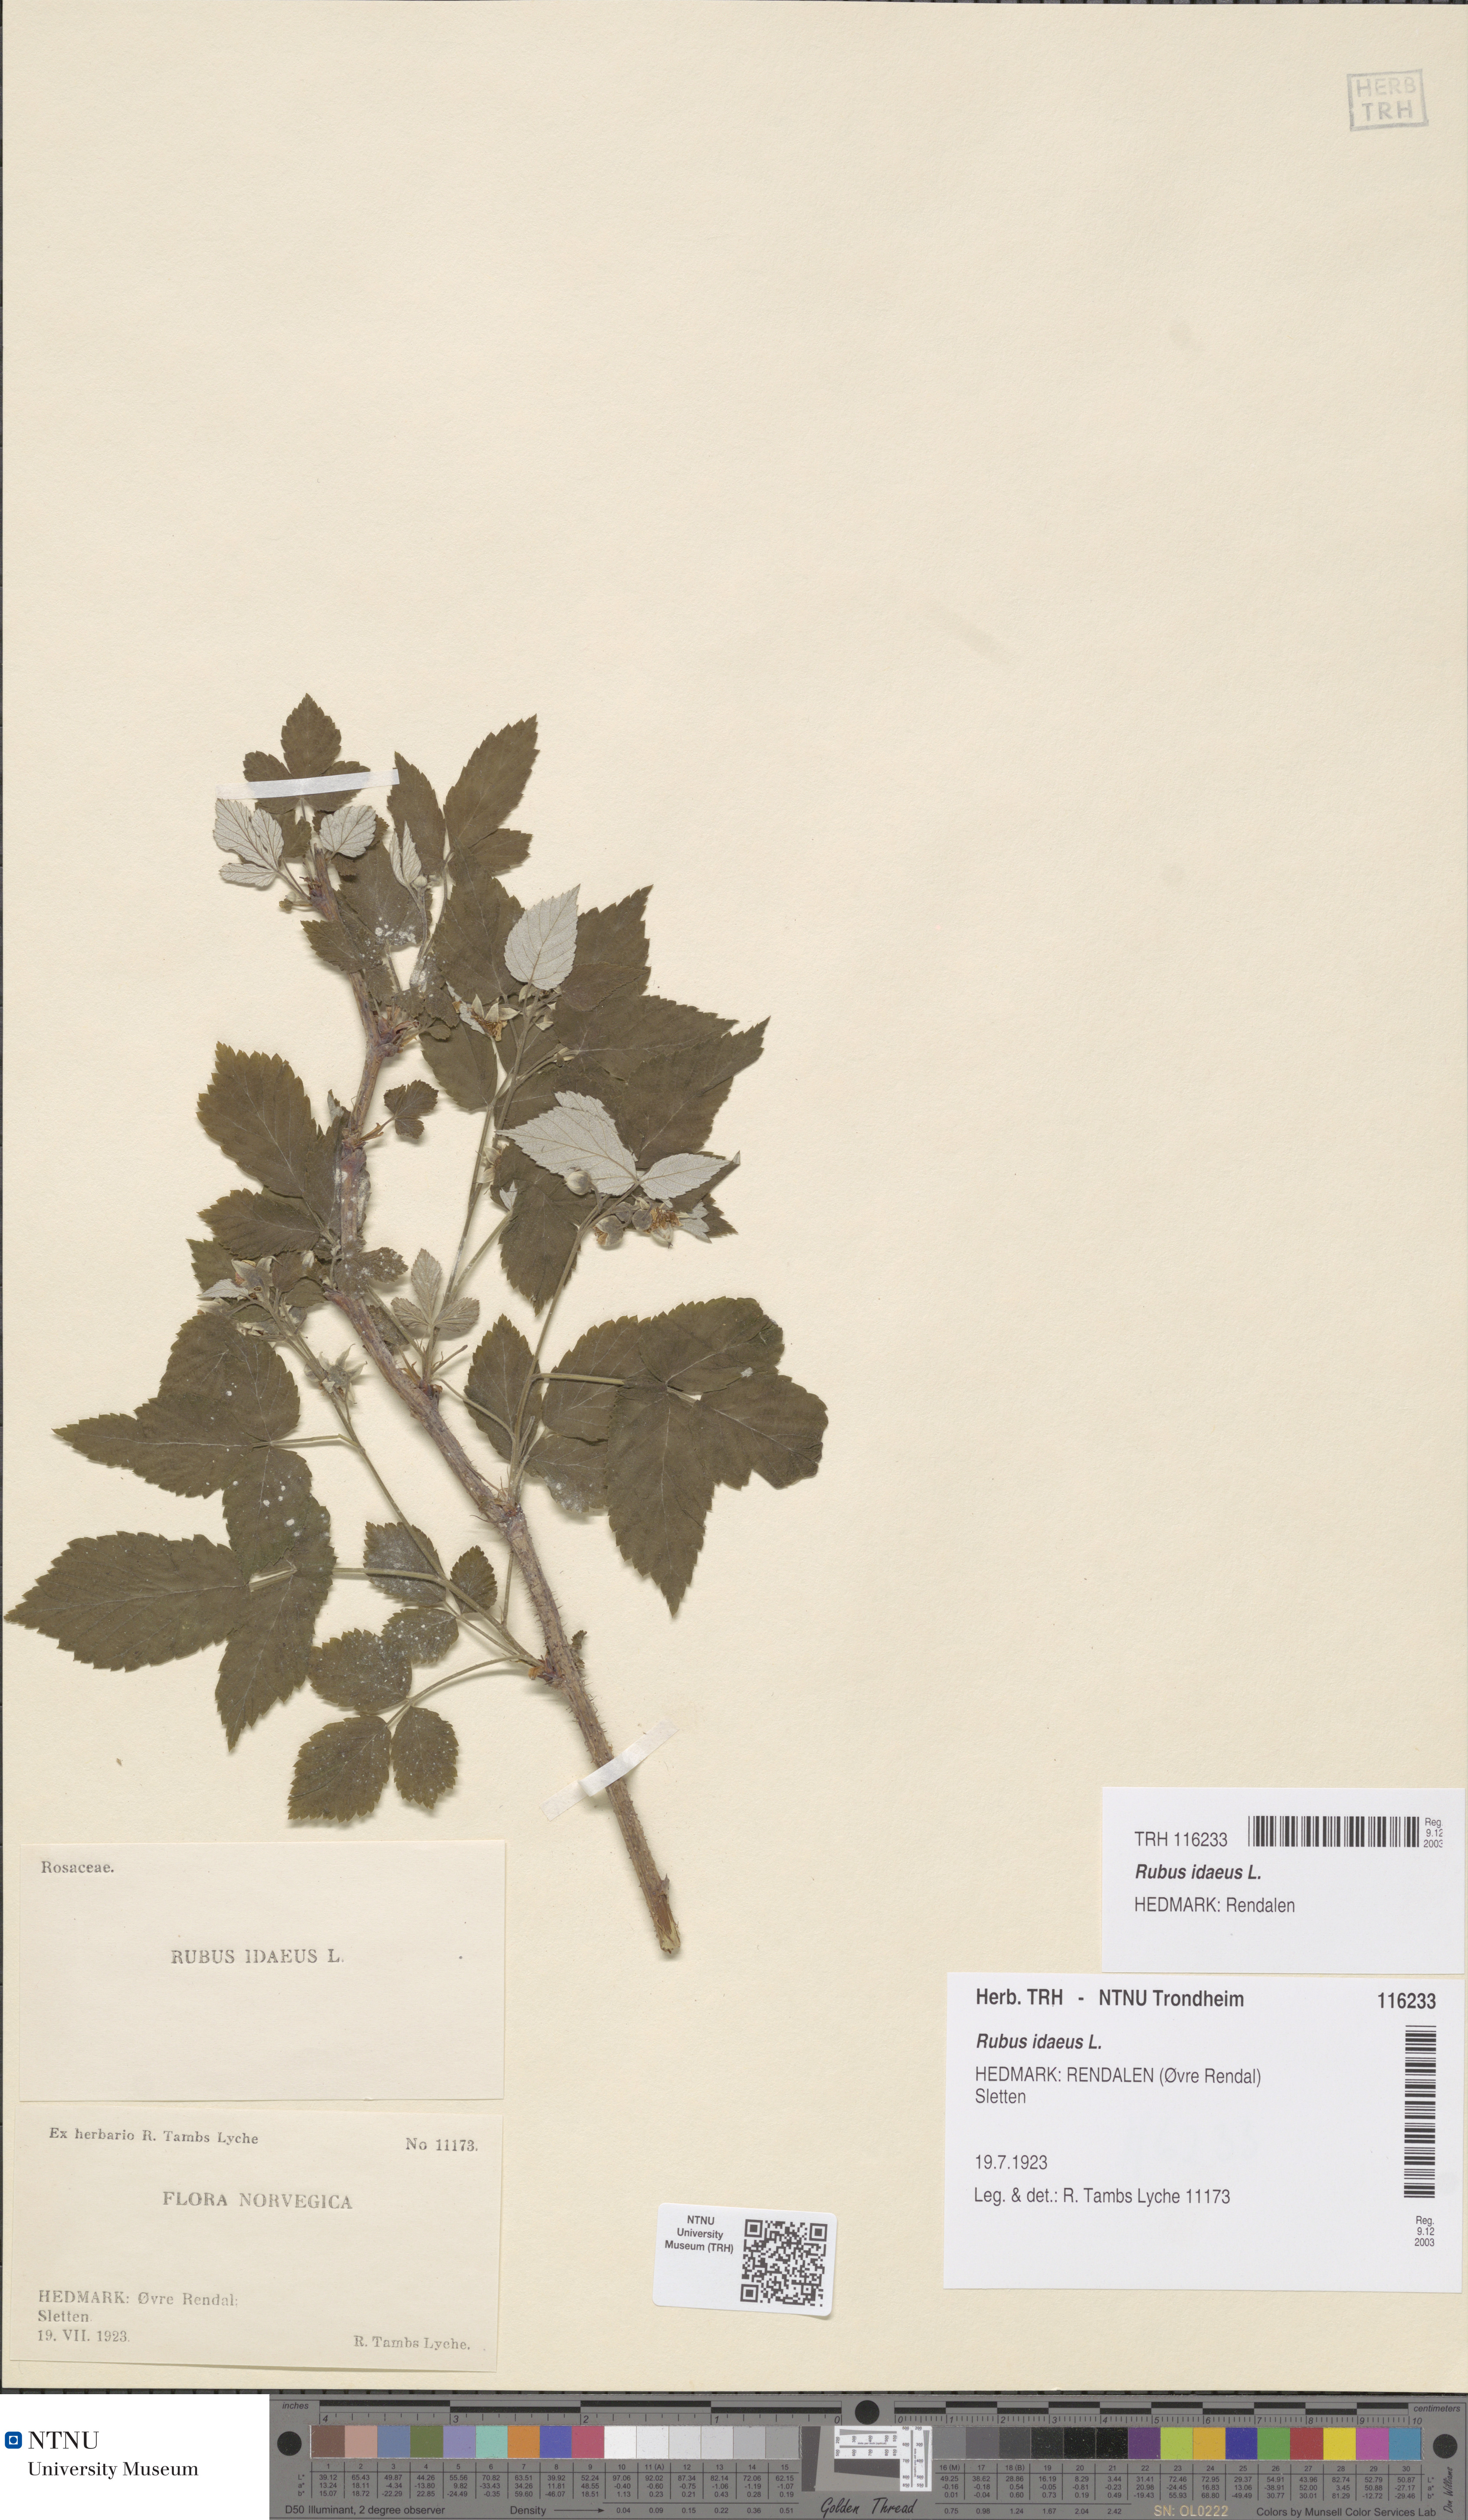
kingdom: Plantae
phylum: Tracheophyta
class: Magnoliopsida
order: Rosales
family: Rosaceae
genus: Rubus
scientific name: Rubus idaeus
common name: Raspberry
